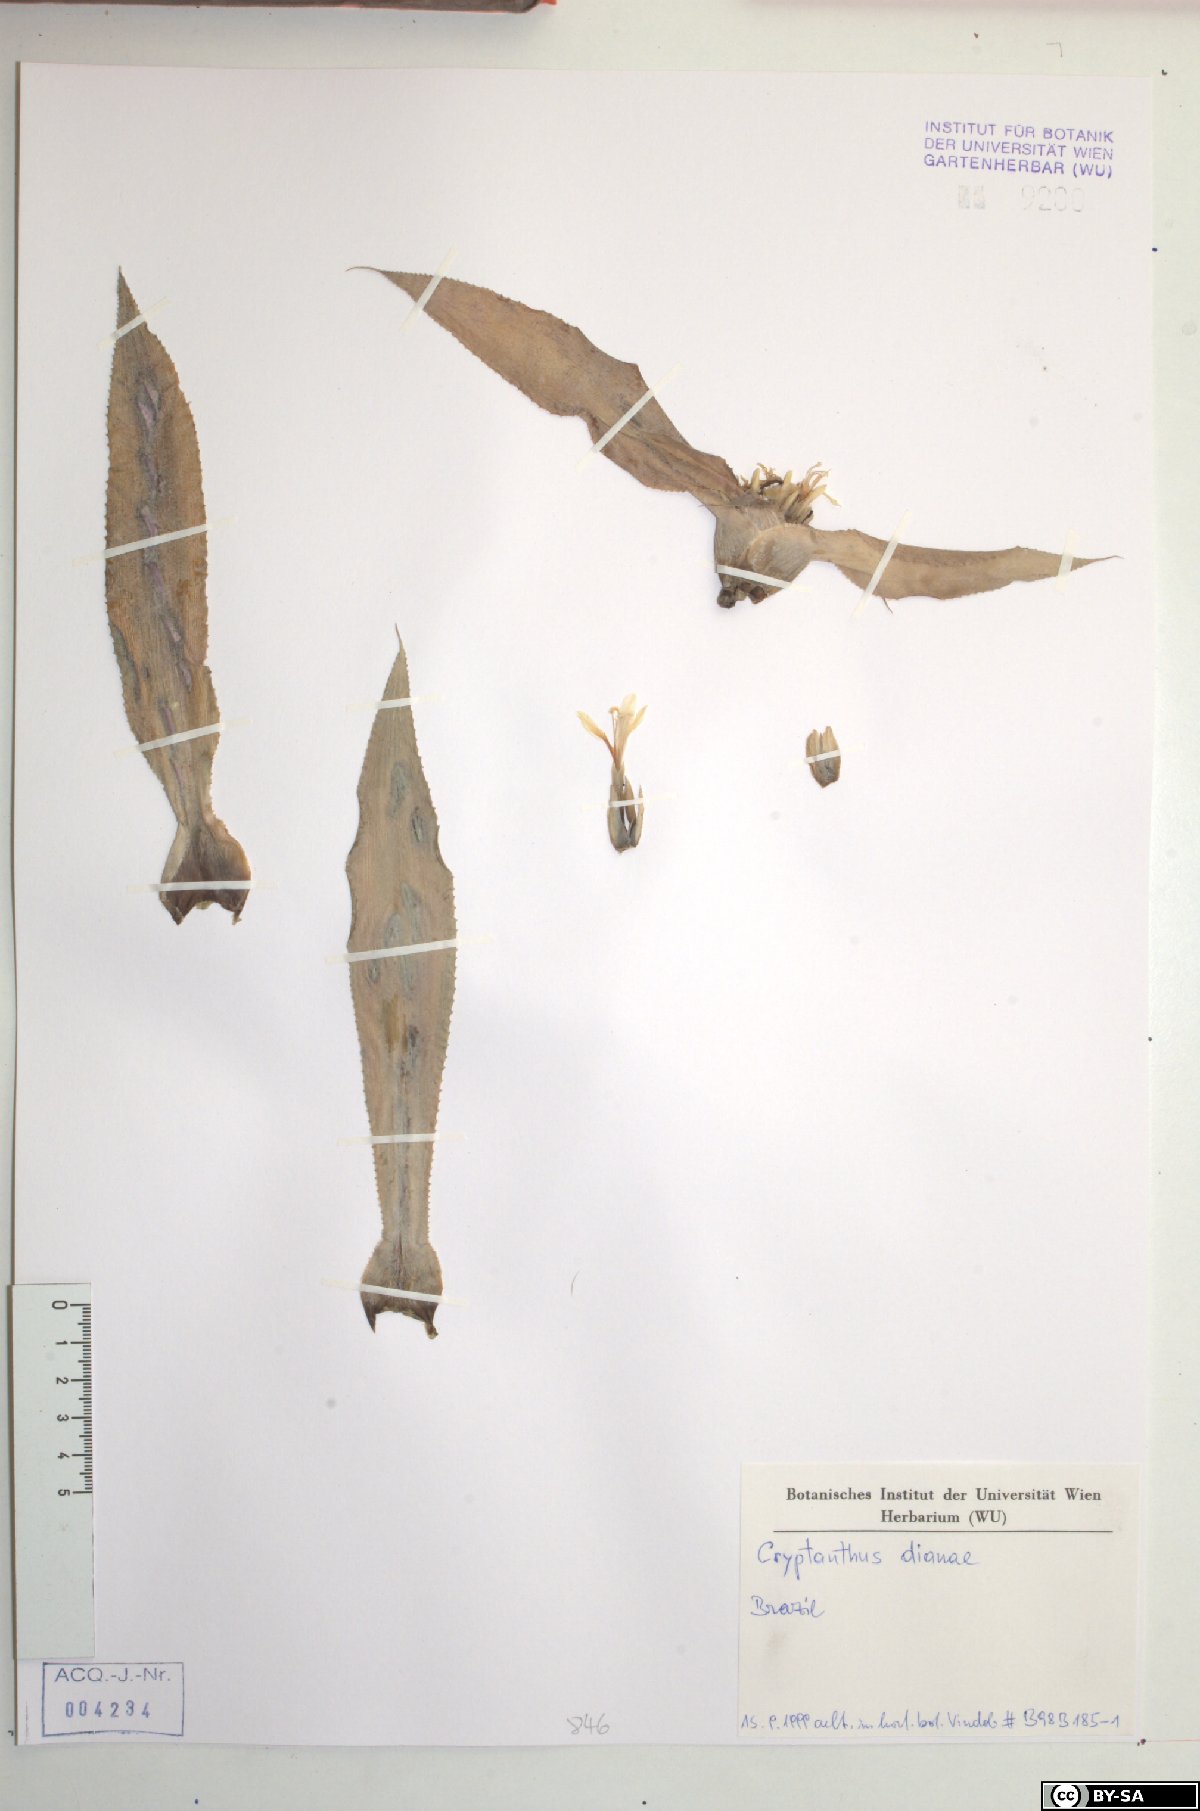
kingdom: Plantae
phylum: Tracheophyta
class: Liliopsida
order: Poales
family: Bromeliaceae
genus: Cryptanthus
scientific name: Cryptanthus dianae
